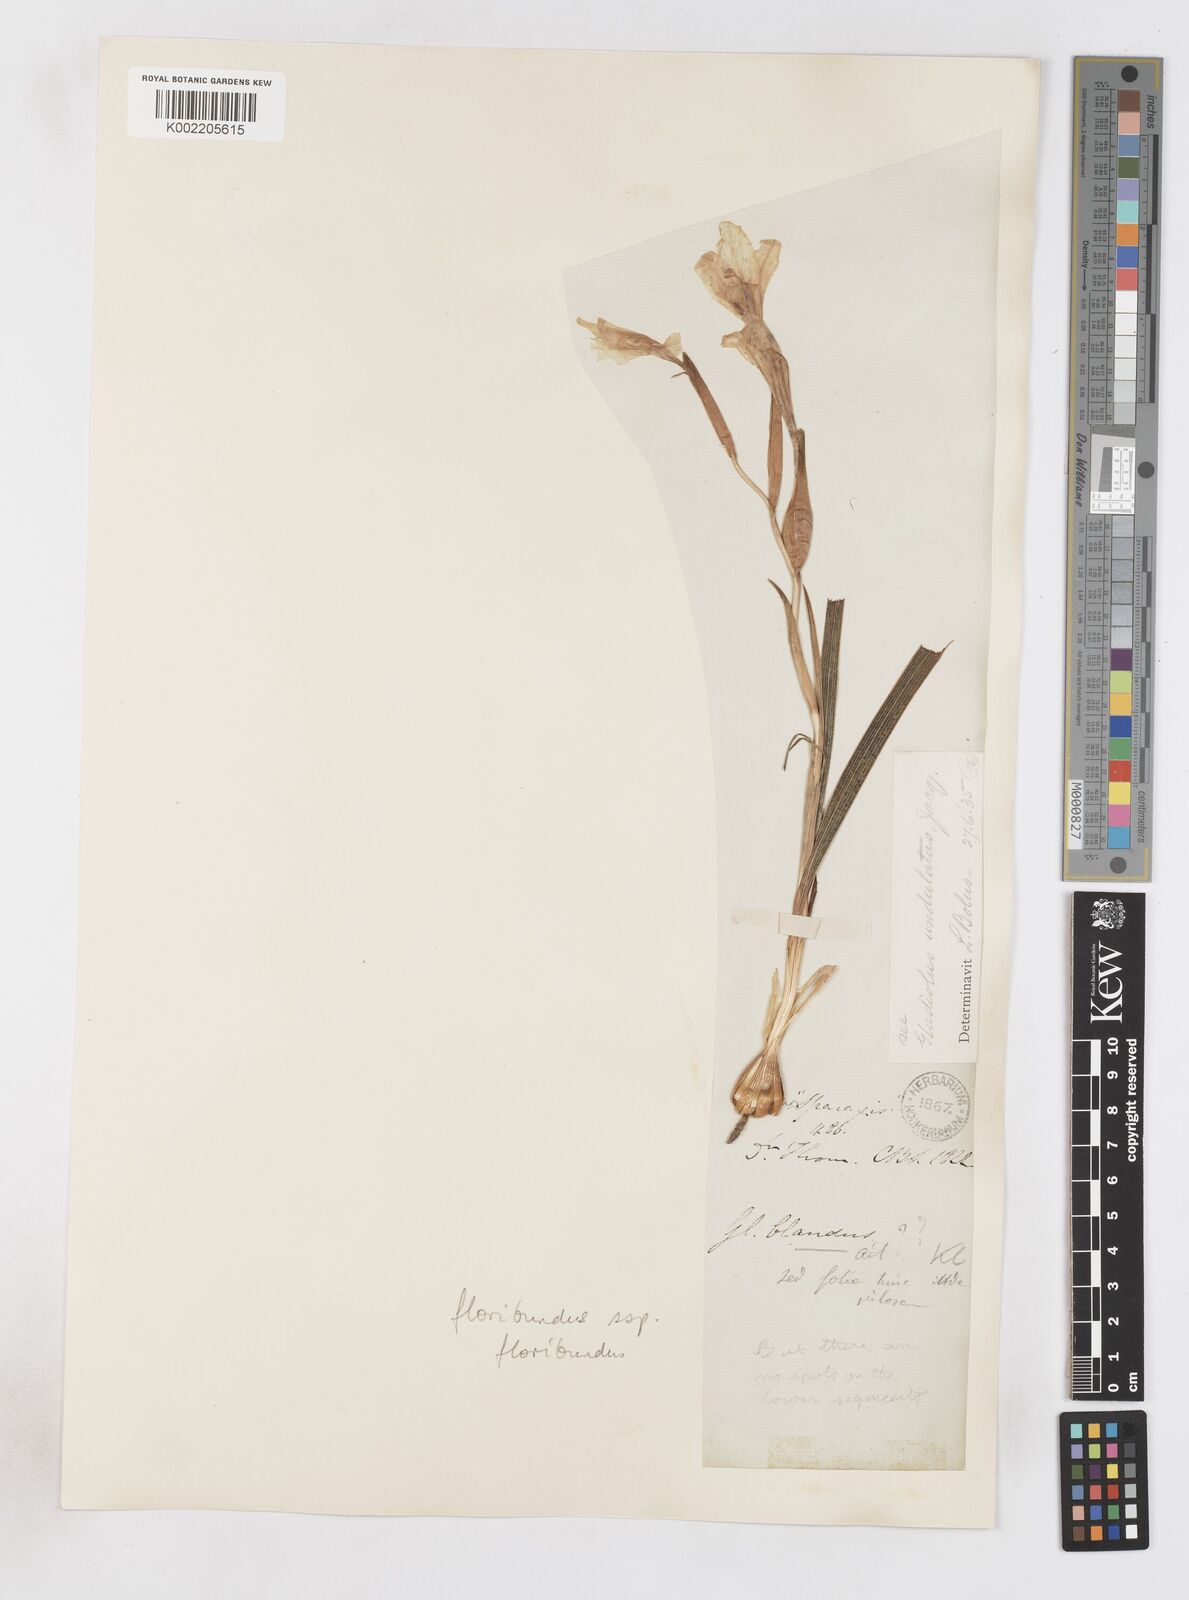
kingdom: Plantae
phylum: Tracheophyta
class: Liliopsida
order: Asparagales
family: Iridaceae
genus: Gladiolus
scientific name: Gladiolus floribundus
